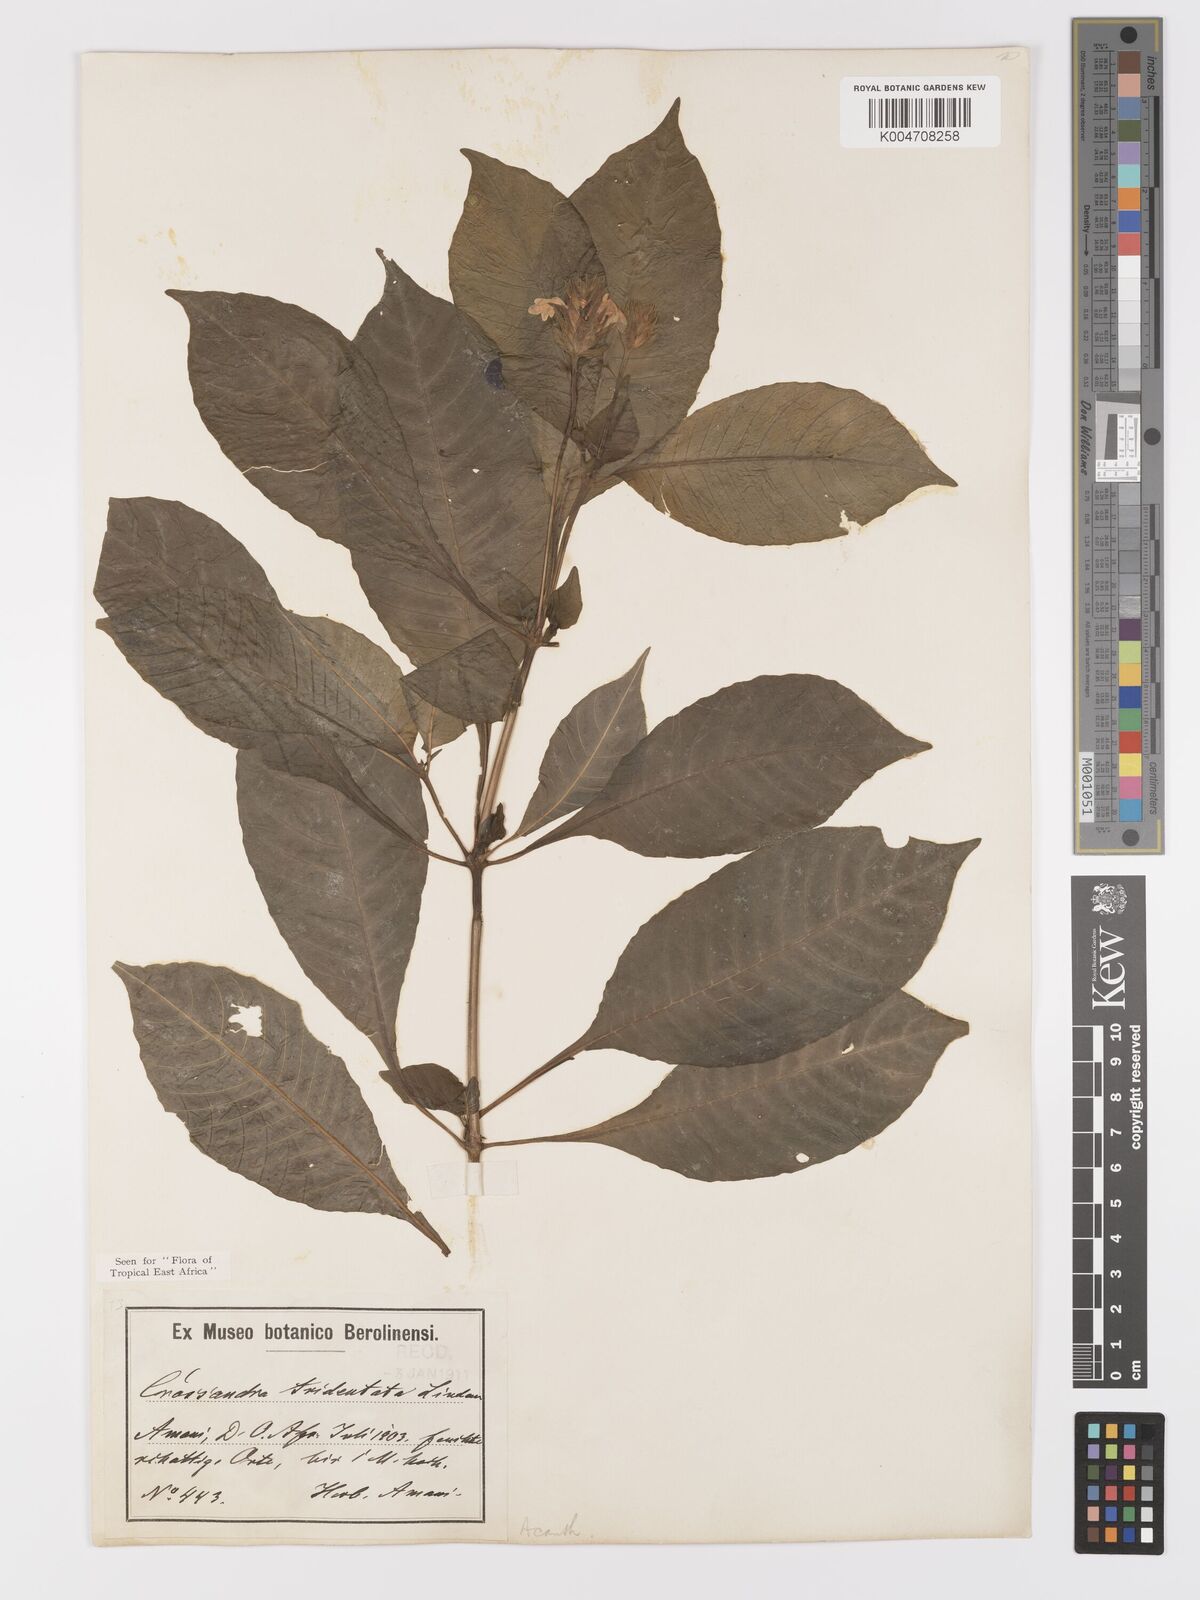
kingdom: Plantae
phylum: Tracheophyta
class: Magnoliopsida
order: Lamiales
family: Acanthaceae
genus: Crossandra
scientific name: Crossandra tridentata
